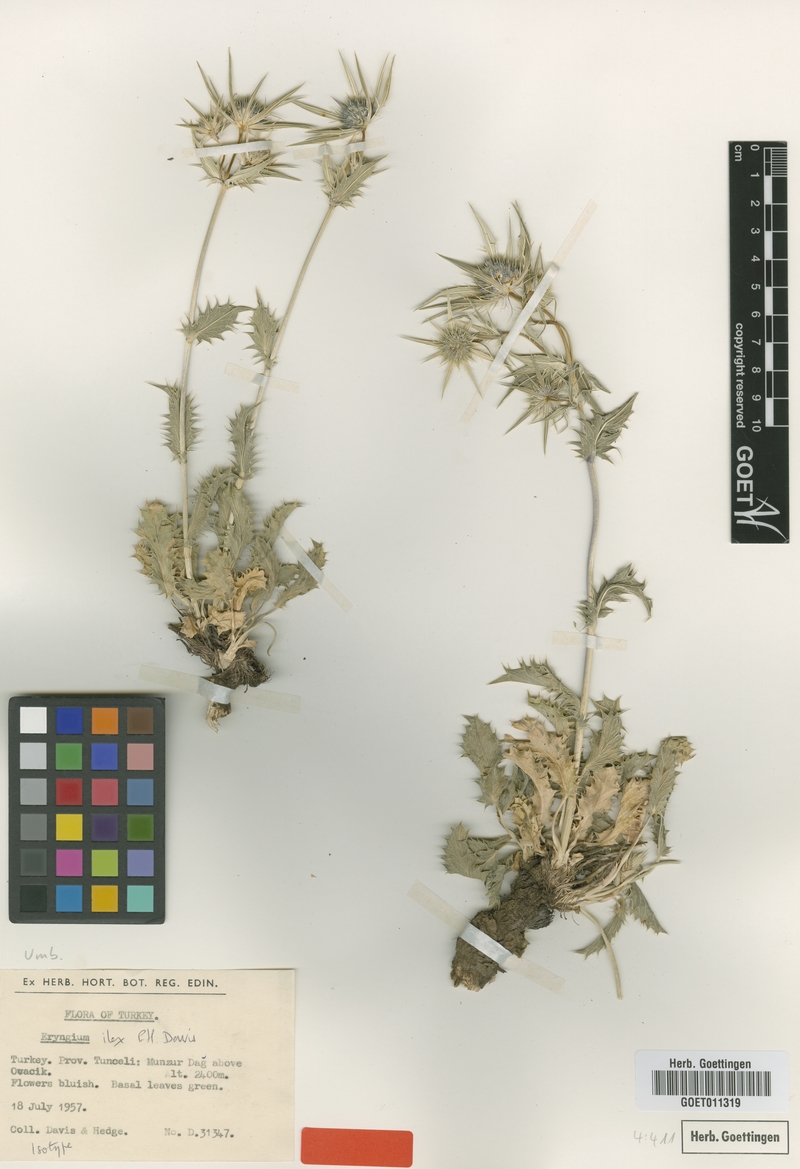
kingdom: Plantae
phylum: Tracheophyta
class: Magnoliopsida
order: Apiales
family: Apiaceae
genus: Eryngium
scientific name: Eryngium ilex
